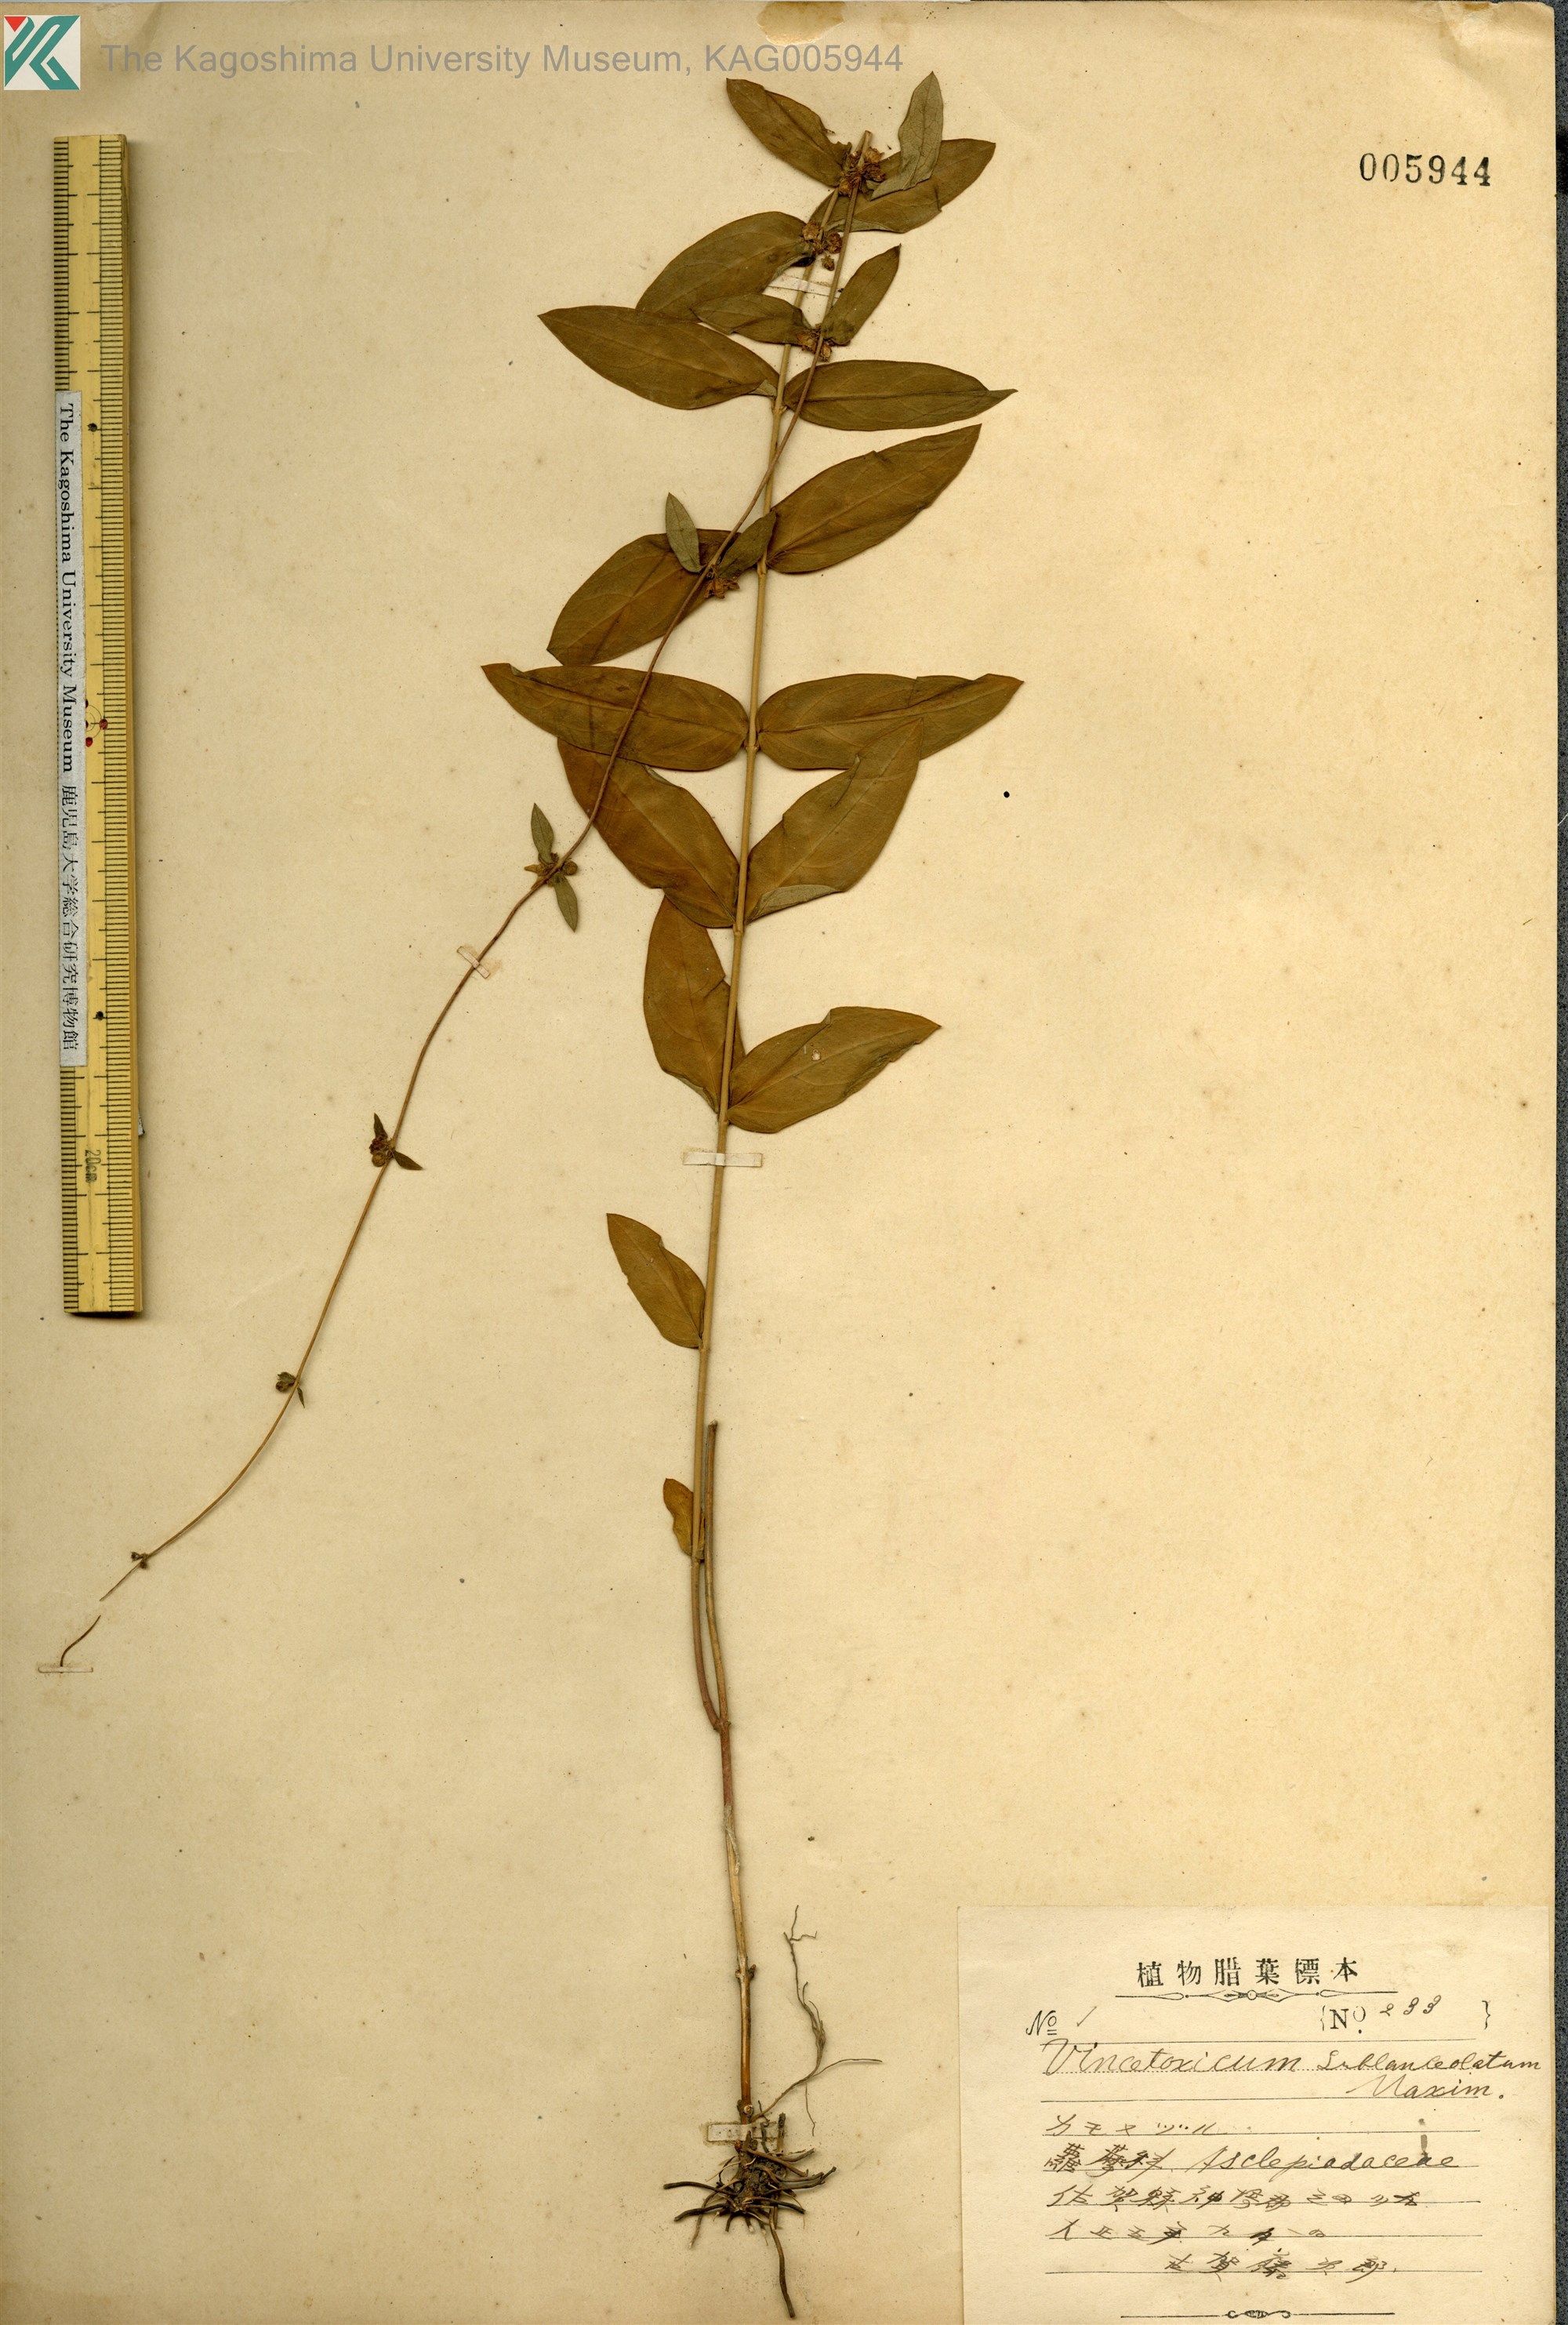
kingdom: Plantae
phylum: Tracheophyta
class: Magnoliopsida
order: Gentianales
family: Apocynaceae
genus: Vincetoxicum
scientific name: Vincetoxicum nipponicum
